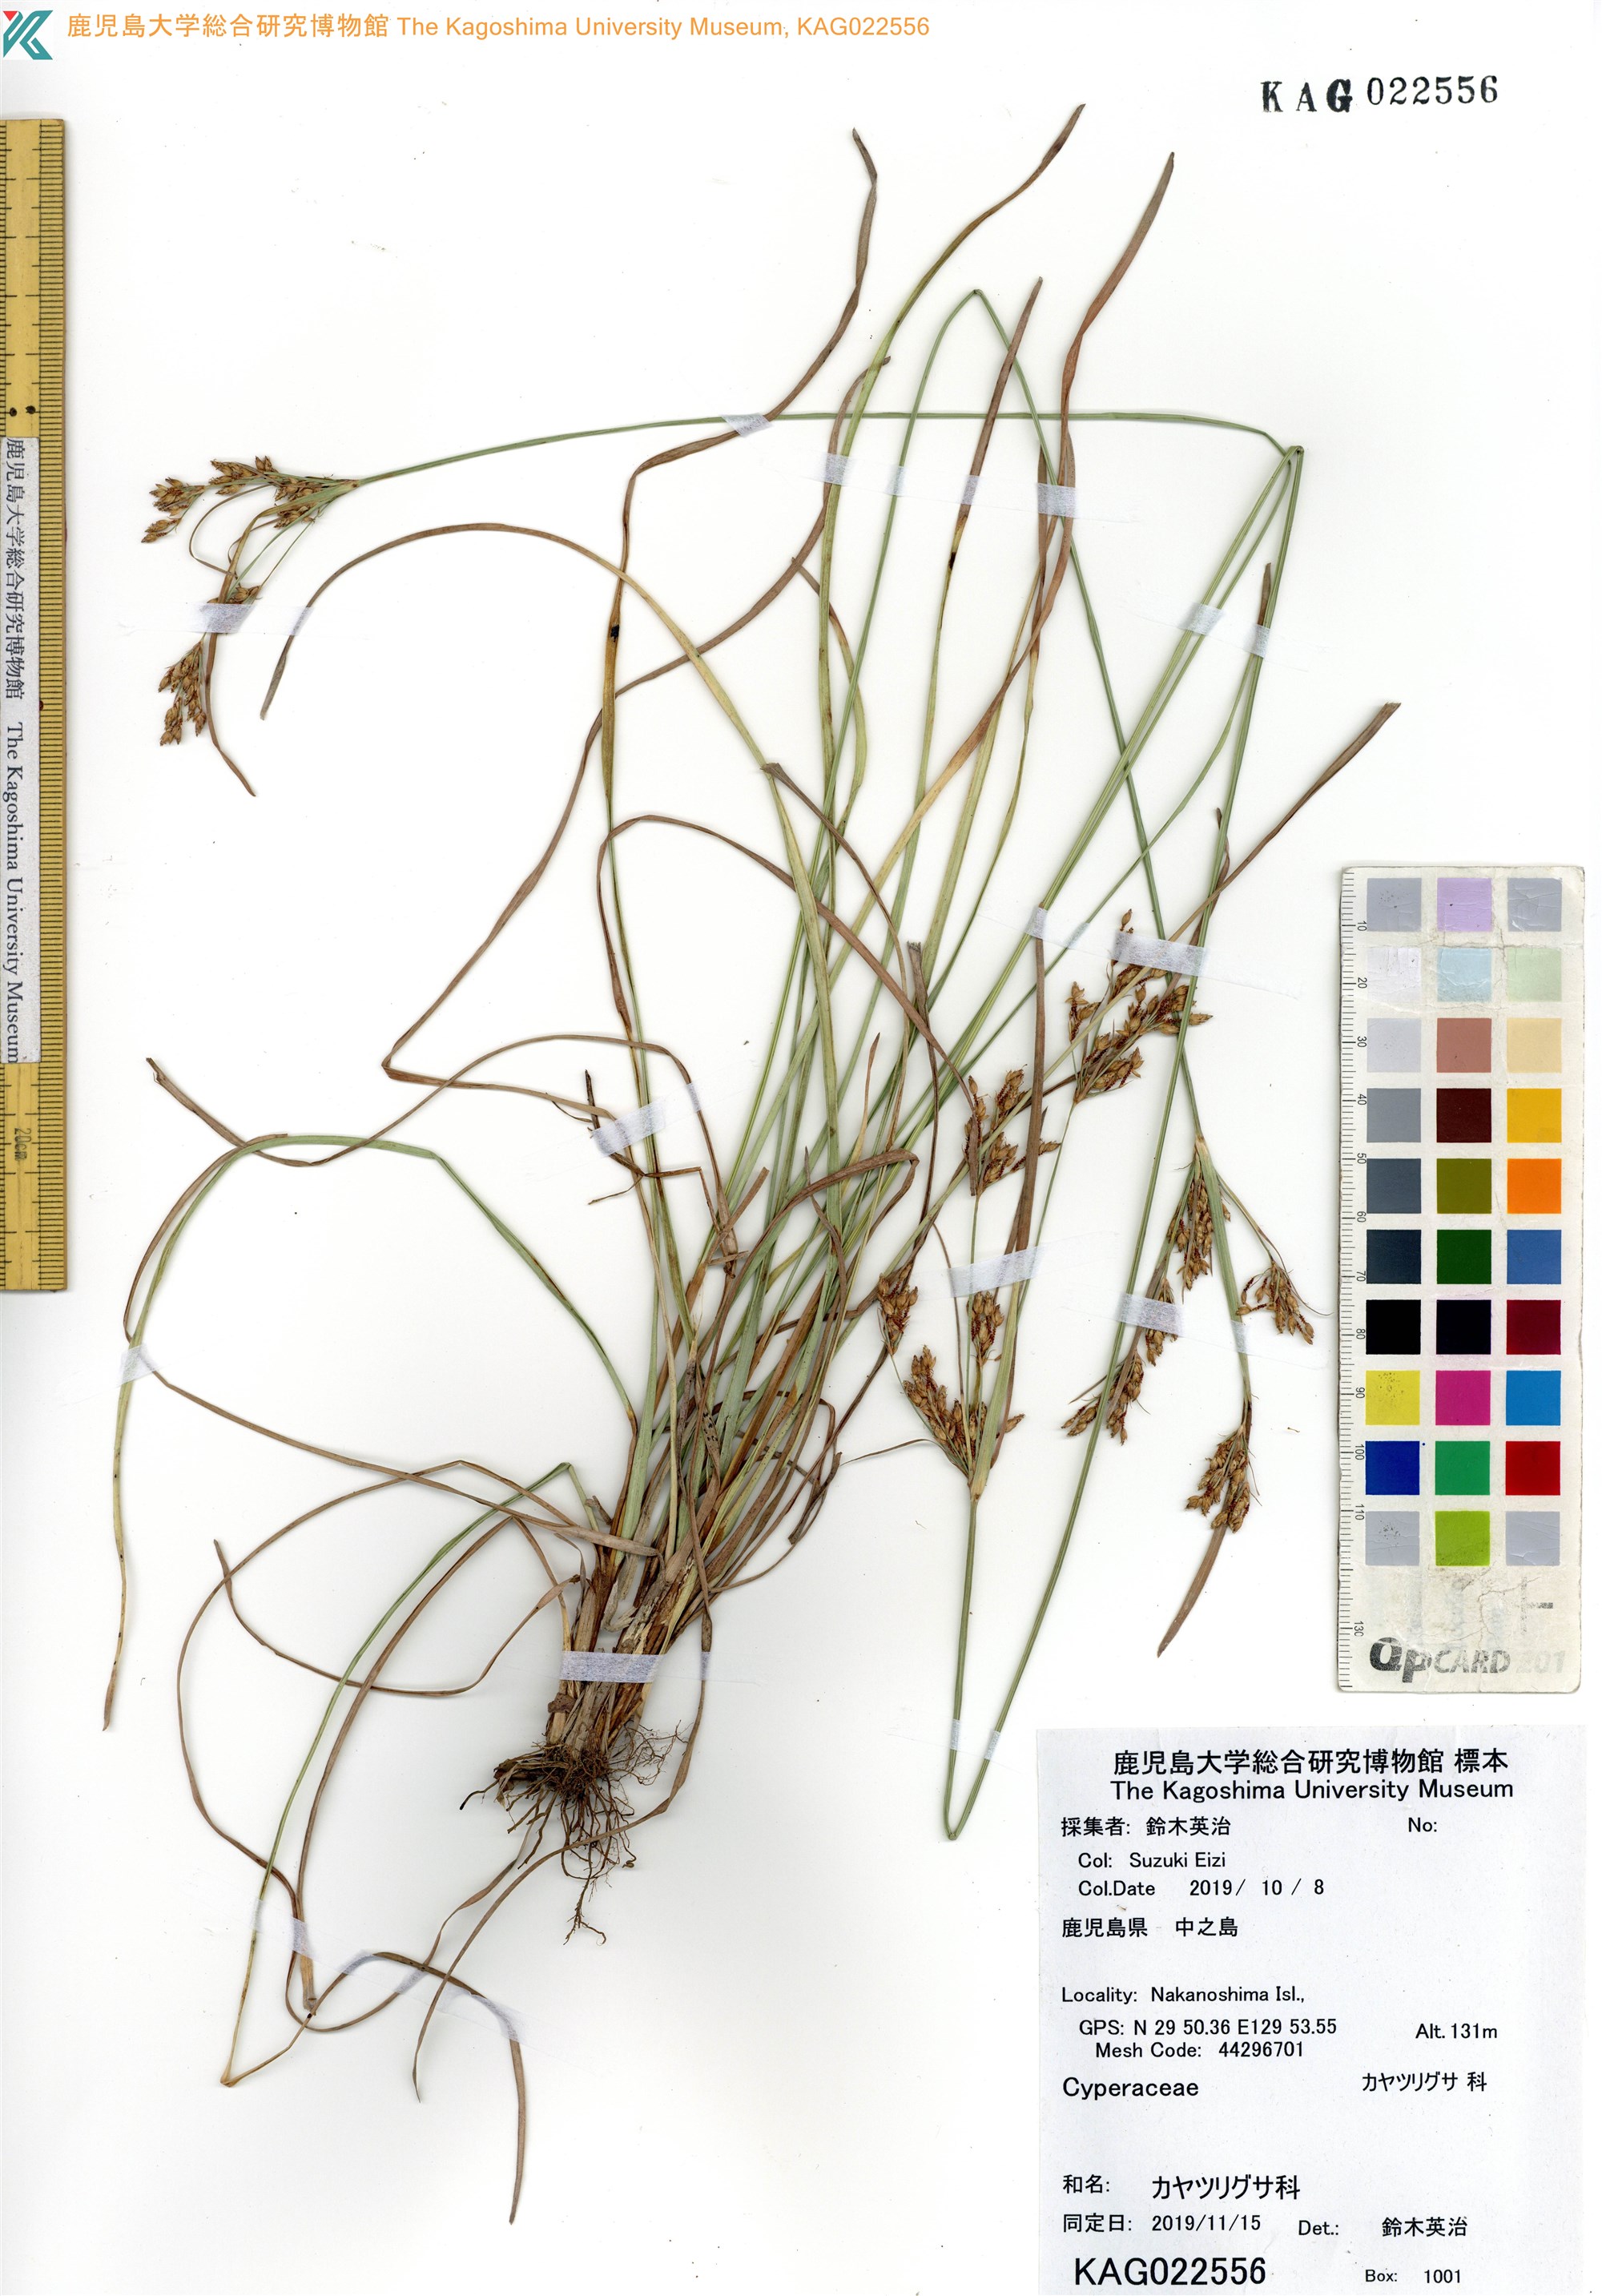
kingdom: Plantae
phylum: Tracheophyta
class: Liliopsida
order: Poales
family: Cyperaceae
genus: Fimbristylis
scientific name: Fimbristylis
